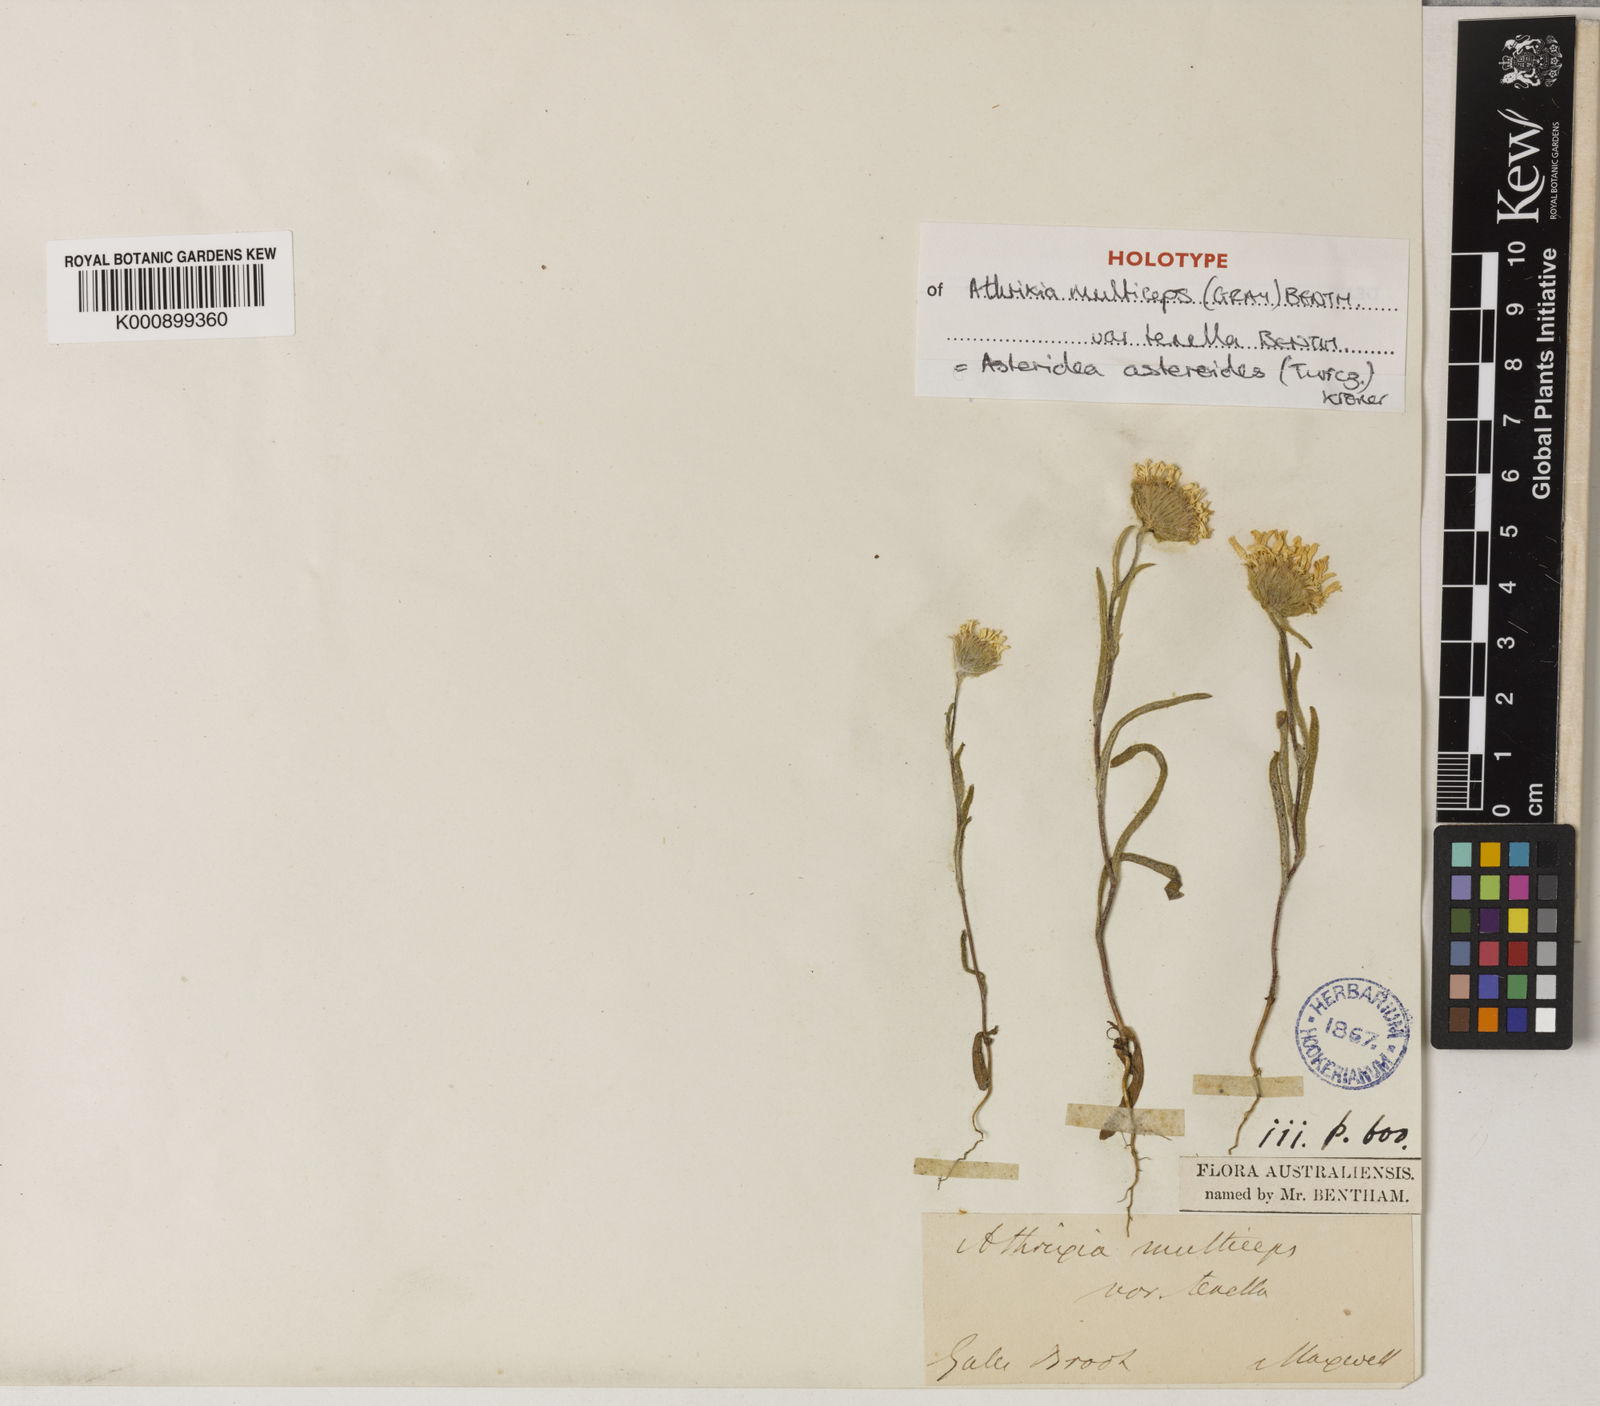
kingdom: Plantae
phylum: Tracheophyta
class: Magnoliopsida
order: Asterales
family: Asteraceae
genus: Asteridea
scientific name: Asteridea
